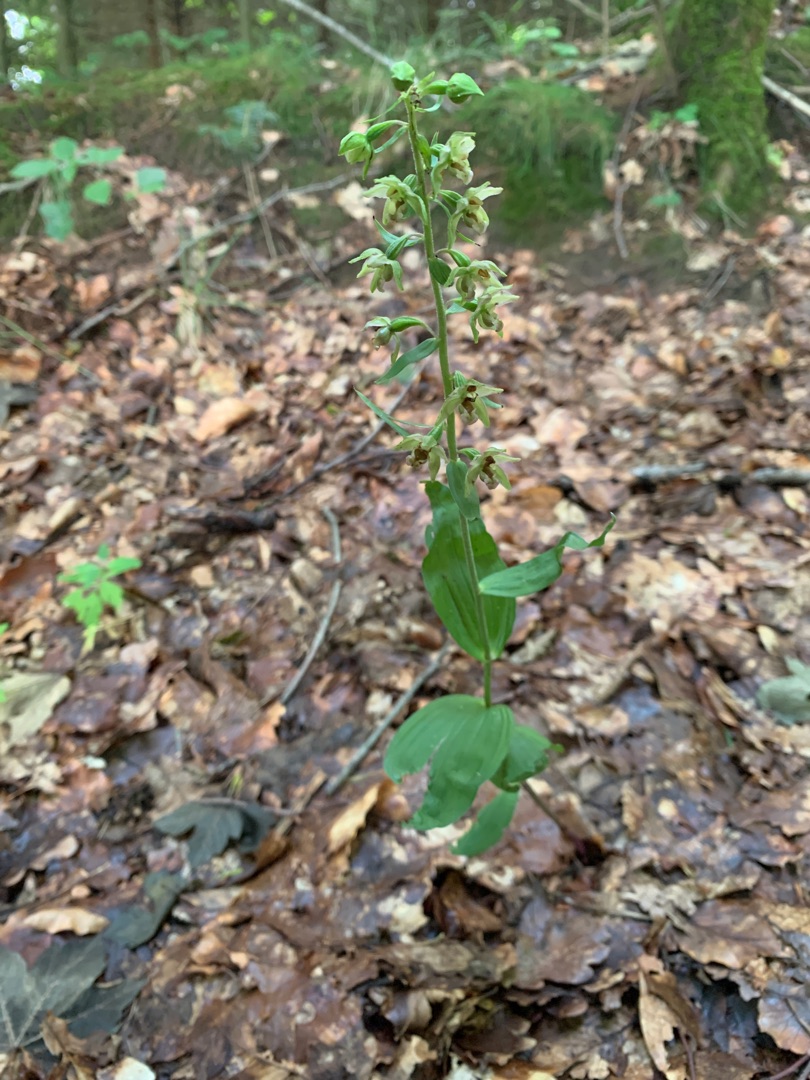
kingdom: Plantae
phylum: Tracheophyta
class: Liliopsida
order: Asparagales
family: Orchidaceae
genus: Epipactis
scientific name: Epipactis helleborine
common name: Skov-hullæbe
